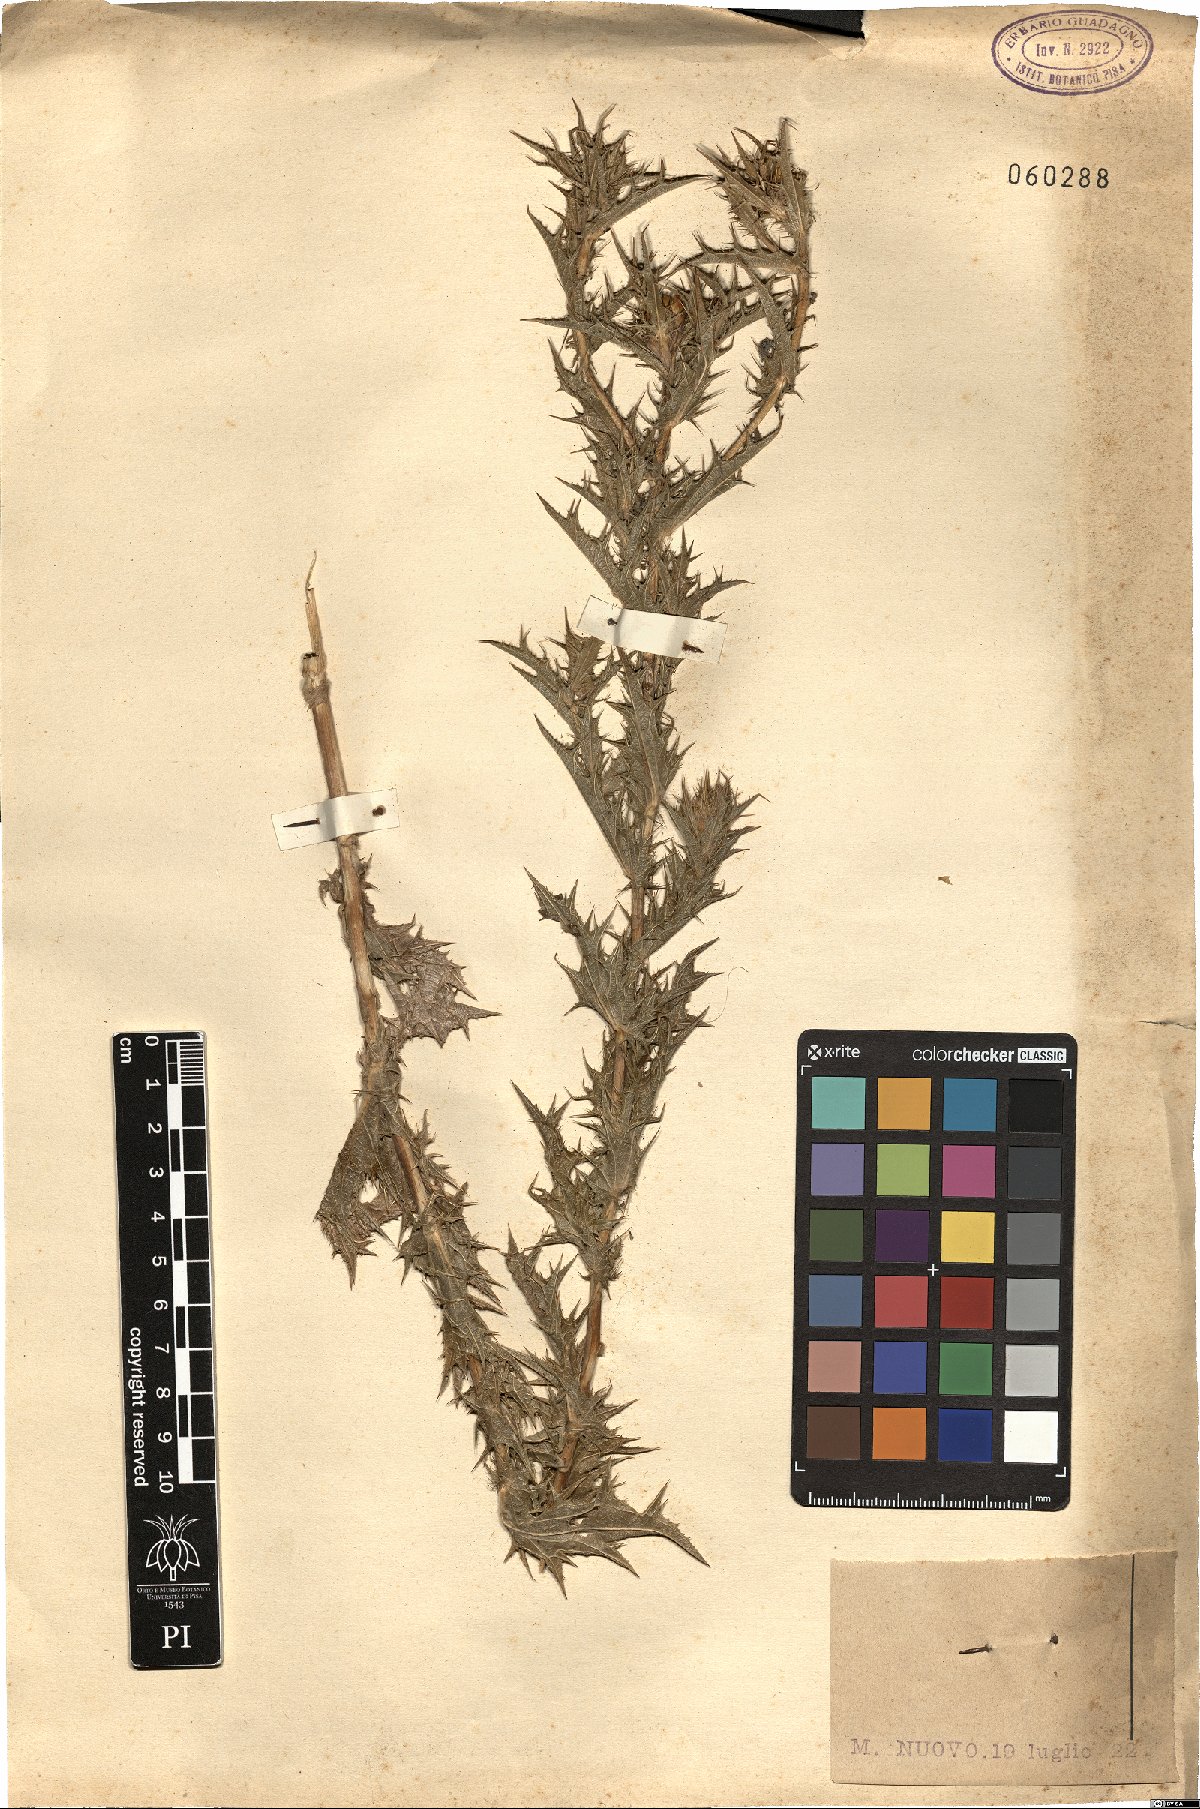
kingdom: Plantae
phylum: Tracheophyta
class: Magnoliopsida
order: Asterales
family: Asteraceae
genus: Carthamus
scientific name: Carthamus lanatus
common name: Downy safflower
